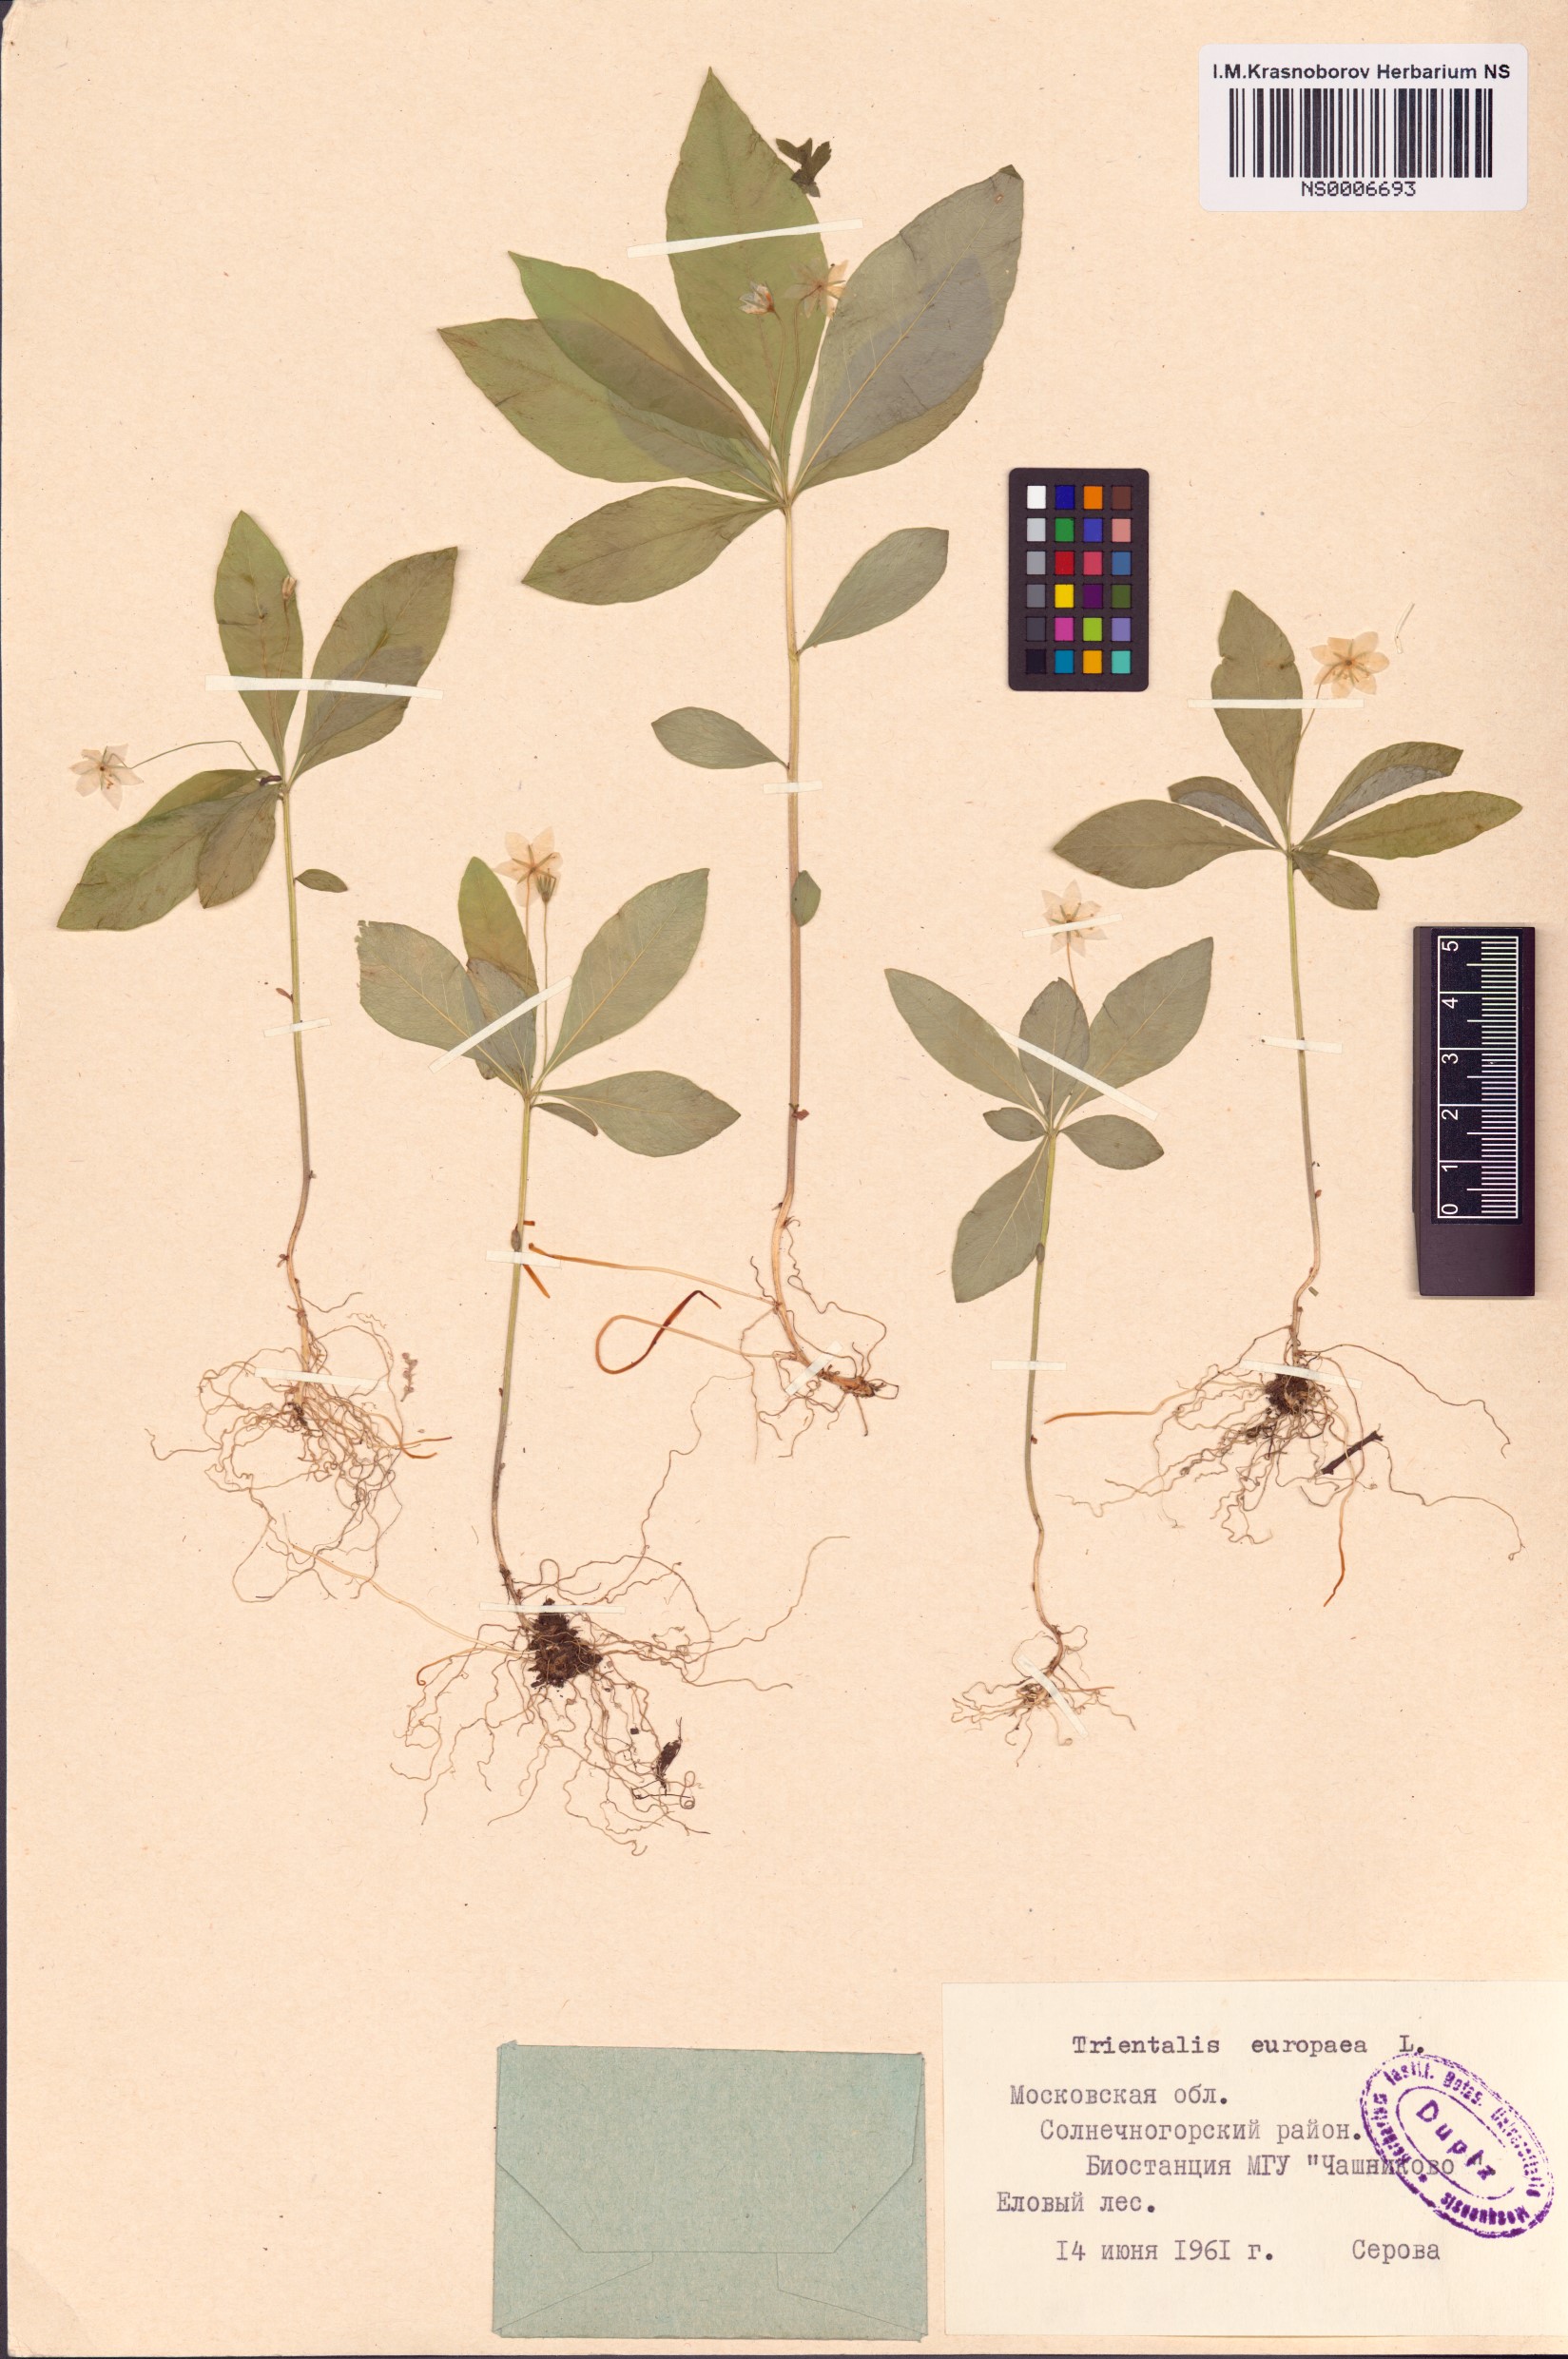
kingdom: Plantae
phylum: Tracheophyta
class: Magnoliopsida
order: Ericales
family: Primulaceae
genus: Lysimachia
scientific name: Lysimachia europaea
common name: Arctic starflower
